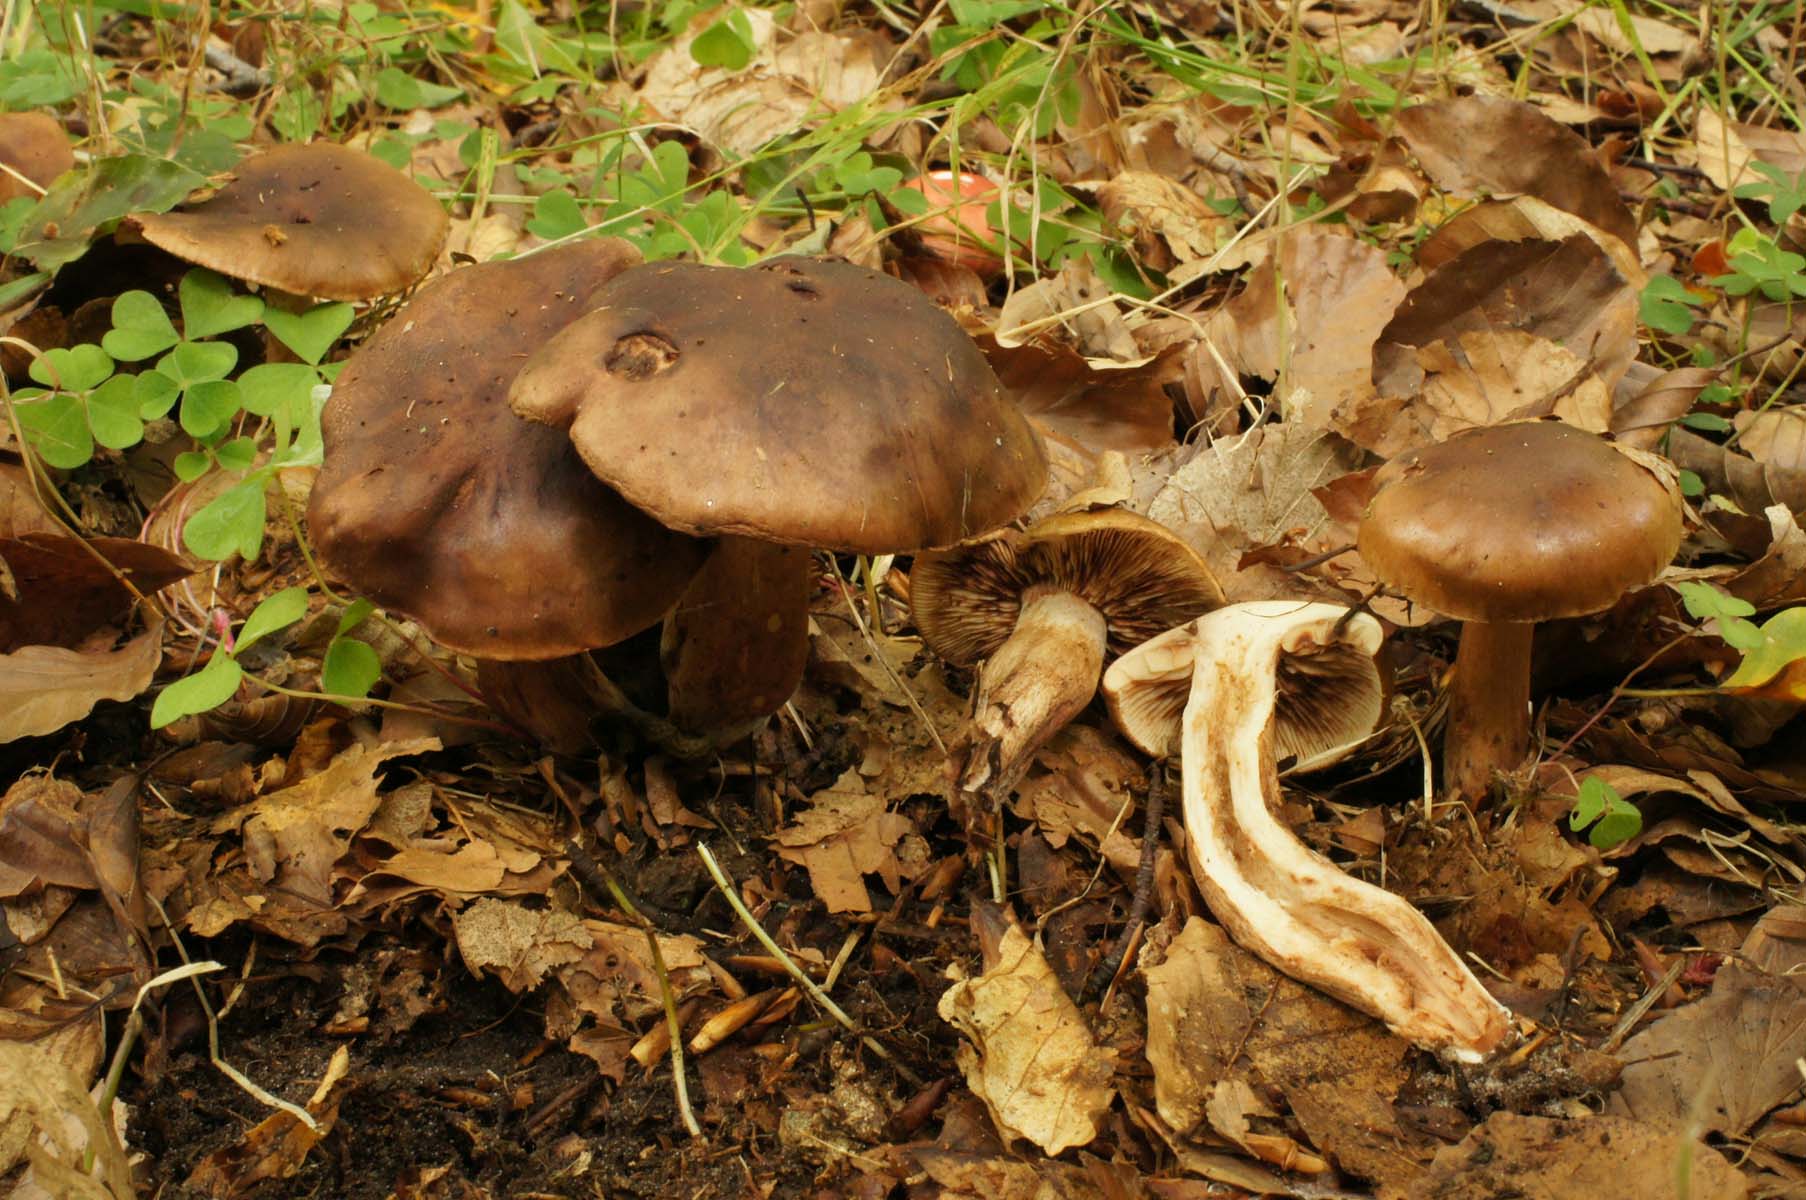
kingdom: Fungi
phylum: Basidiomycota
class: Agaricomycetes
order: Agaricales
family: Tricholomataceae
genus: Tricholoma
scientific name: Tricholoma ustale
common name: sveden ridderhat
